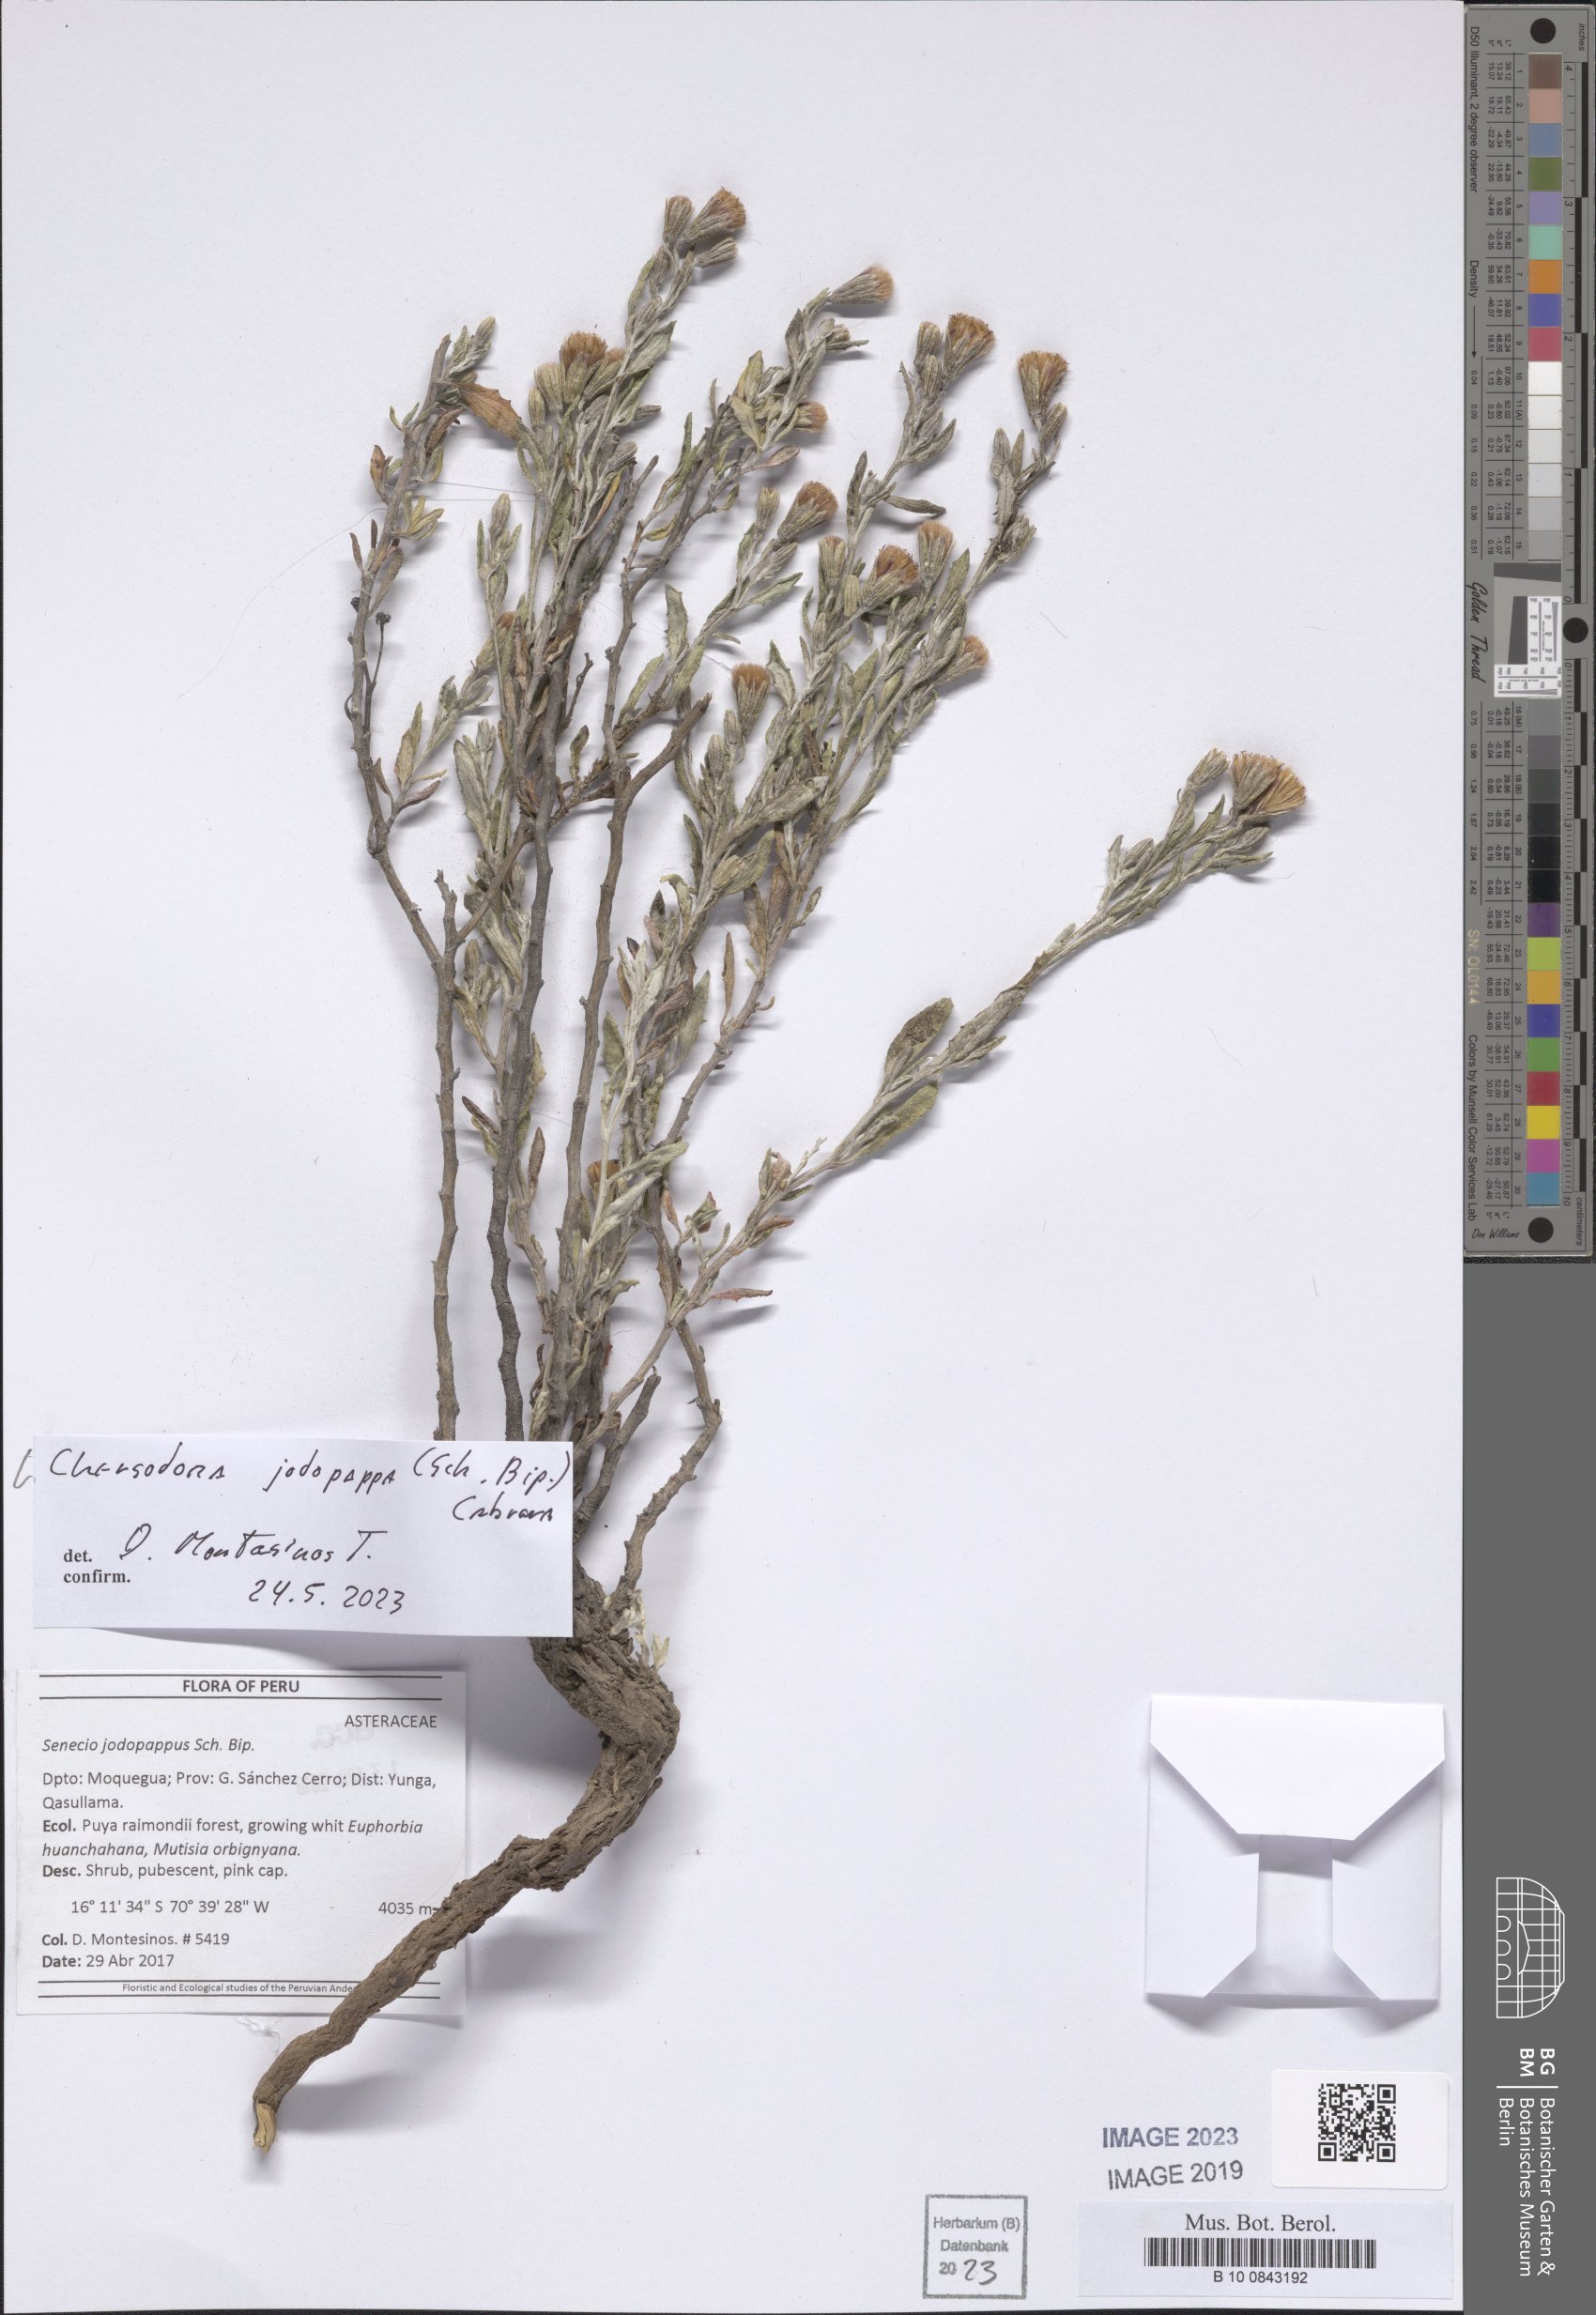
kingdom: Plantae
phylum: Tracheophyta
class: Magnoliopsida
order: Asterales
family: Asteraceae
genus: Chersodoma
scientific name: Chersodoma jodopappa
